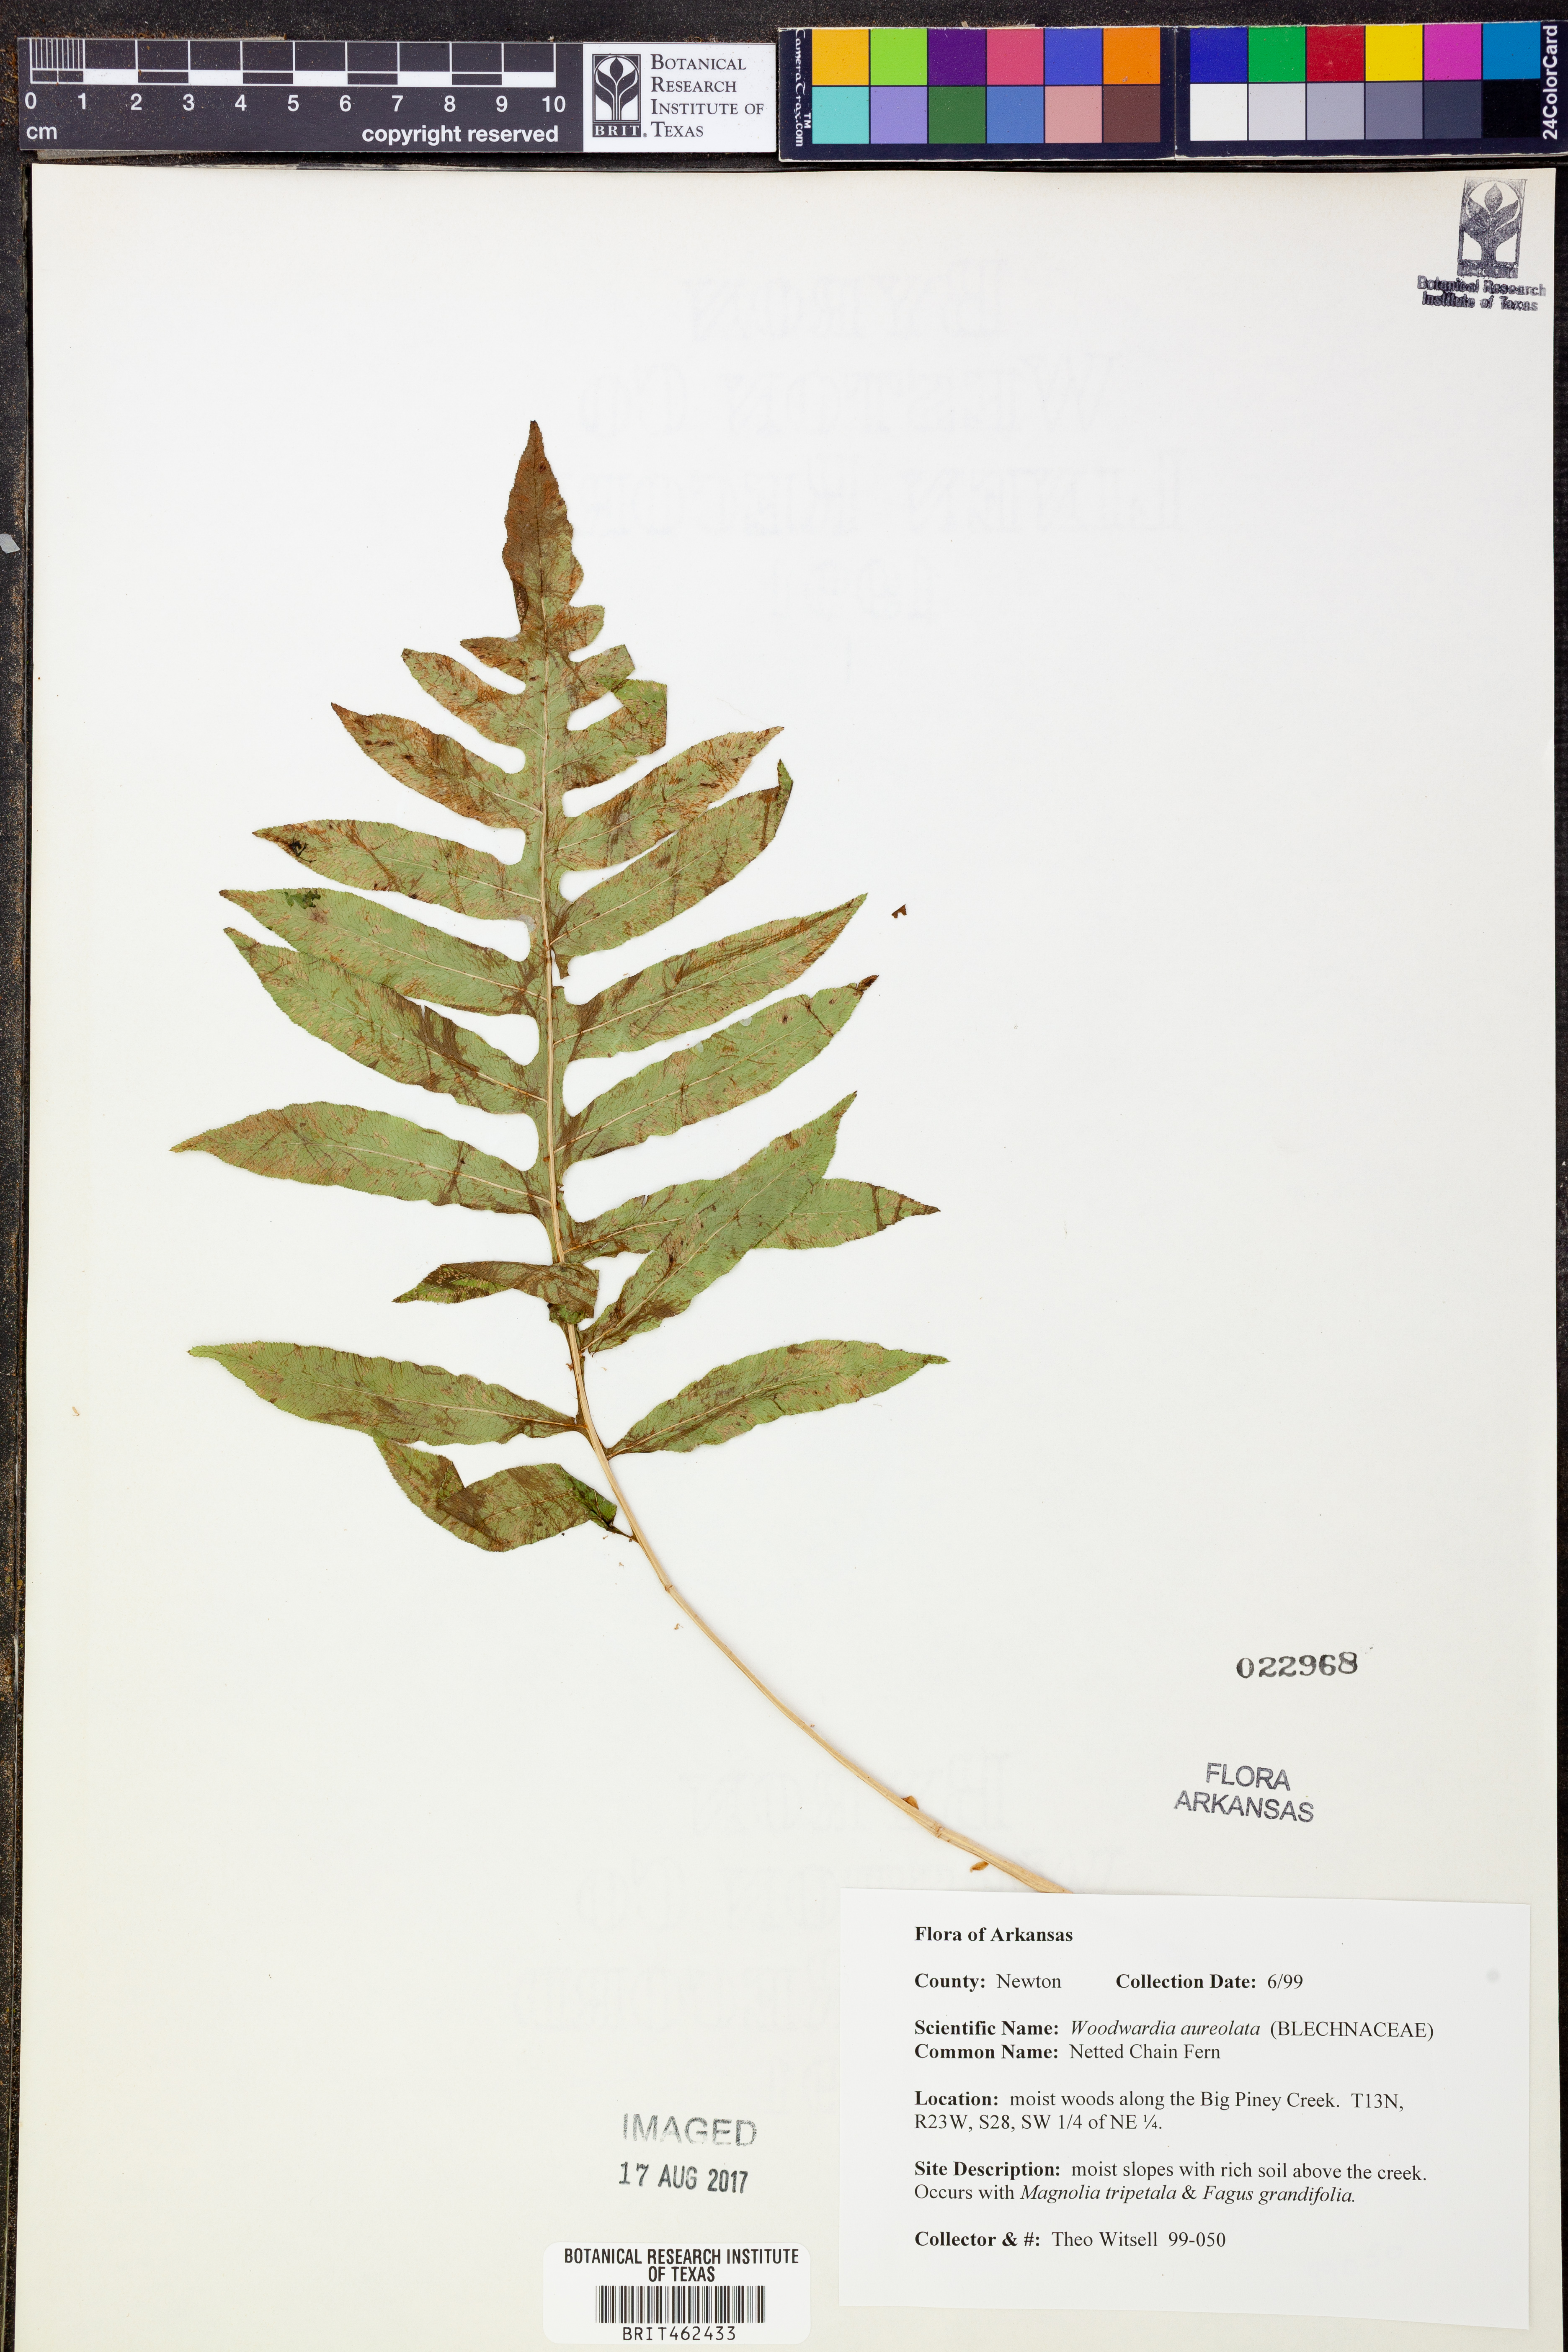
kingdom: Plantae
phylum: Tracheophyta
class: Polypodiopsida
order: Polypodiales
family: Blechnaceae
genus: Lorinseria
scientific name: Lorinseria areolata
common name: Dwarf chain fern
